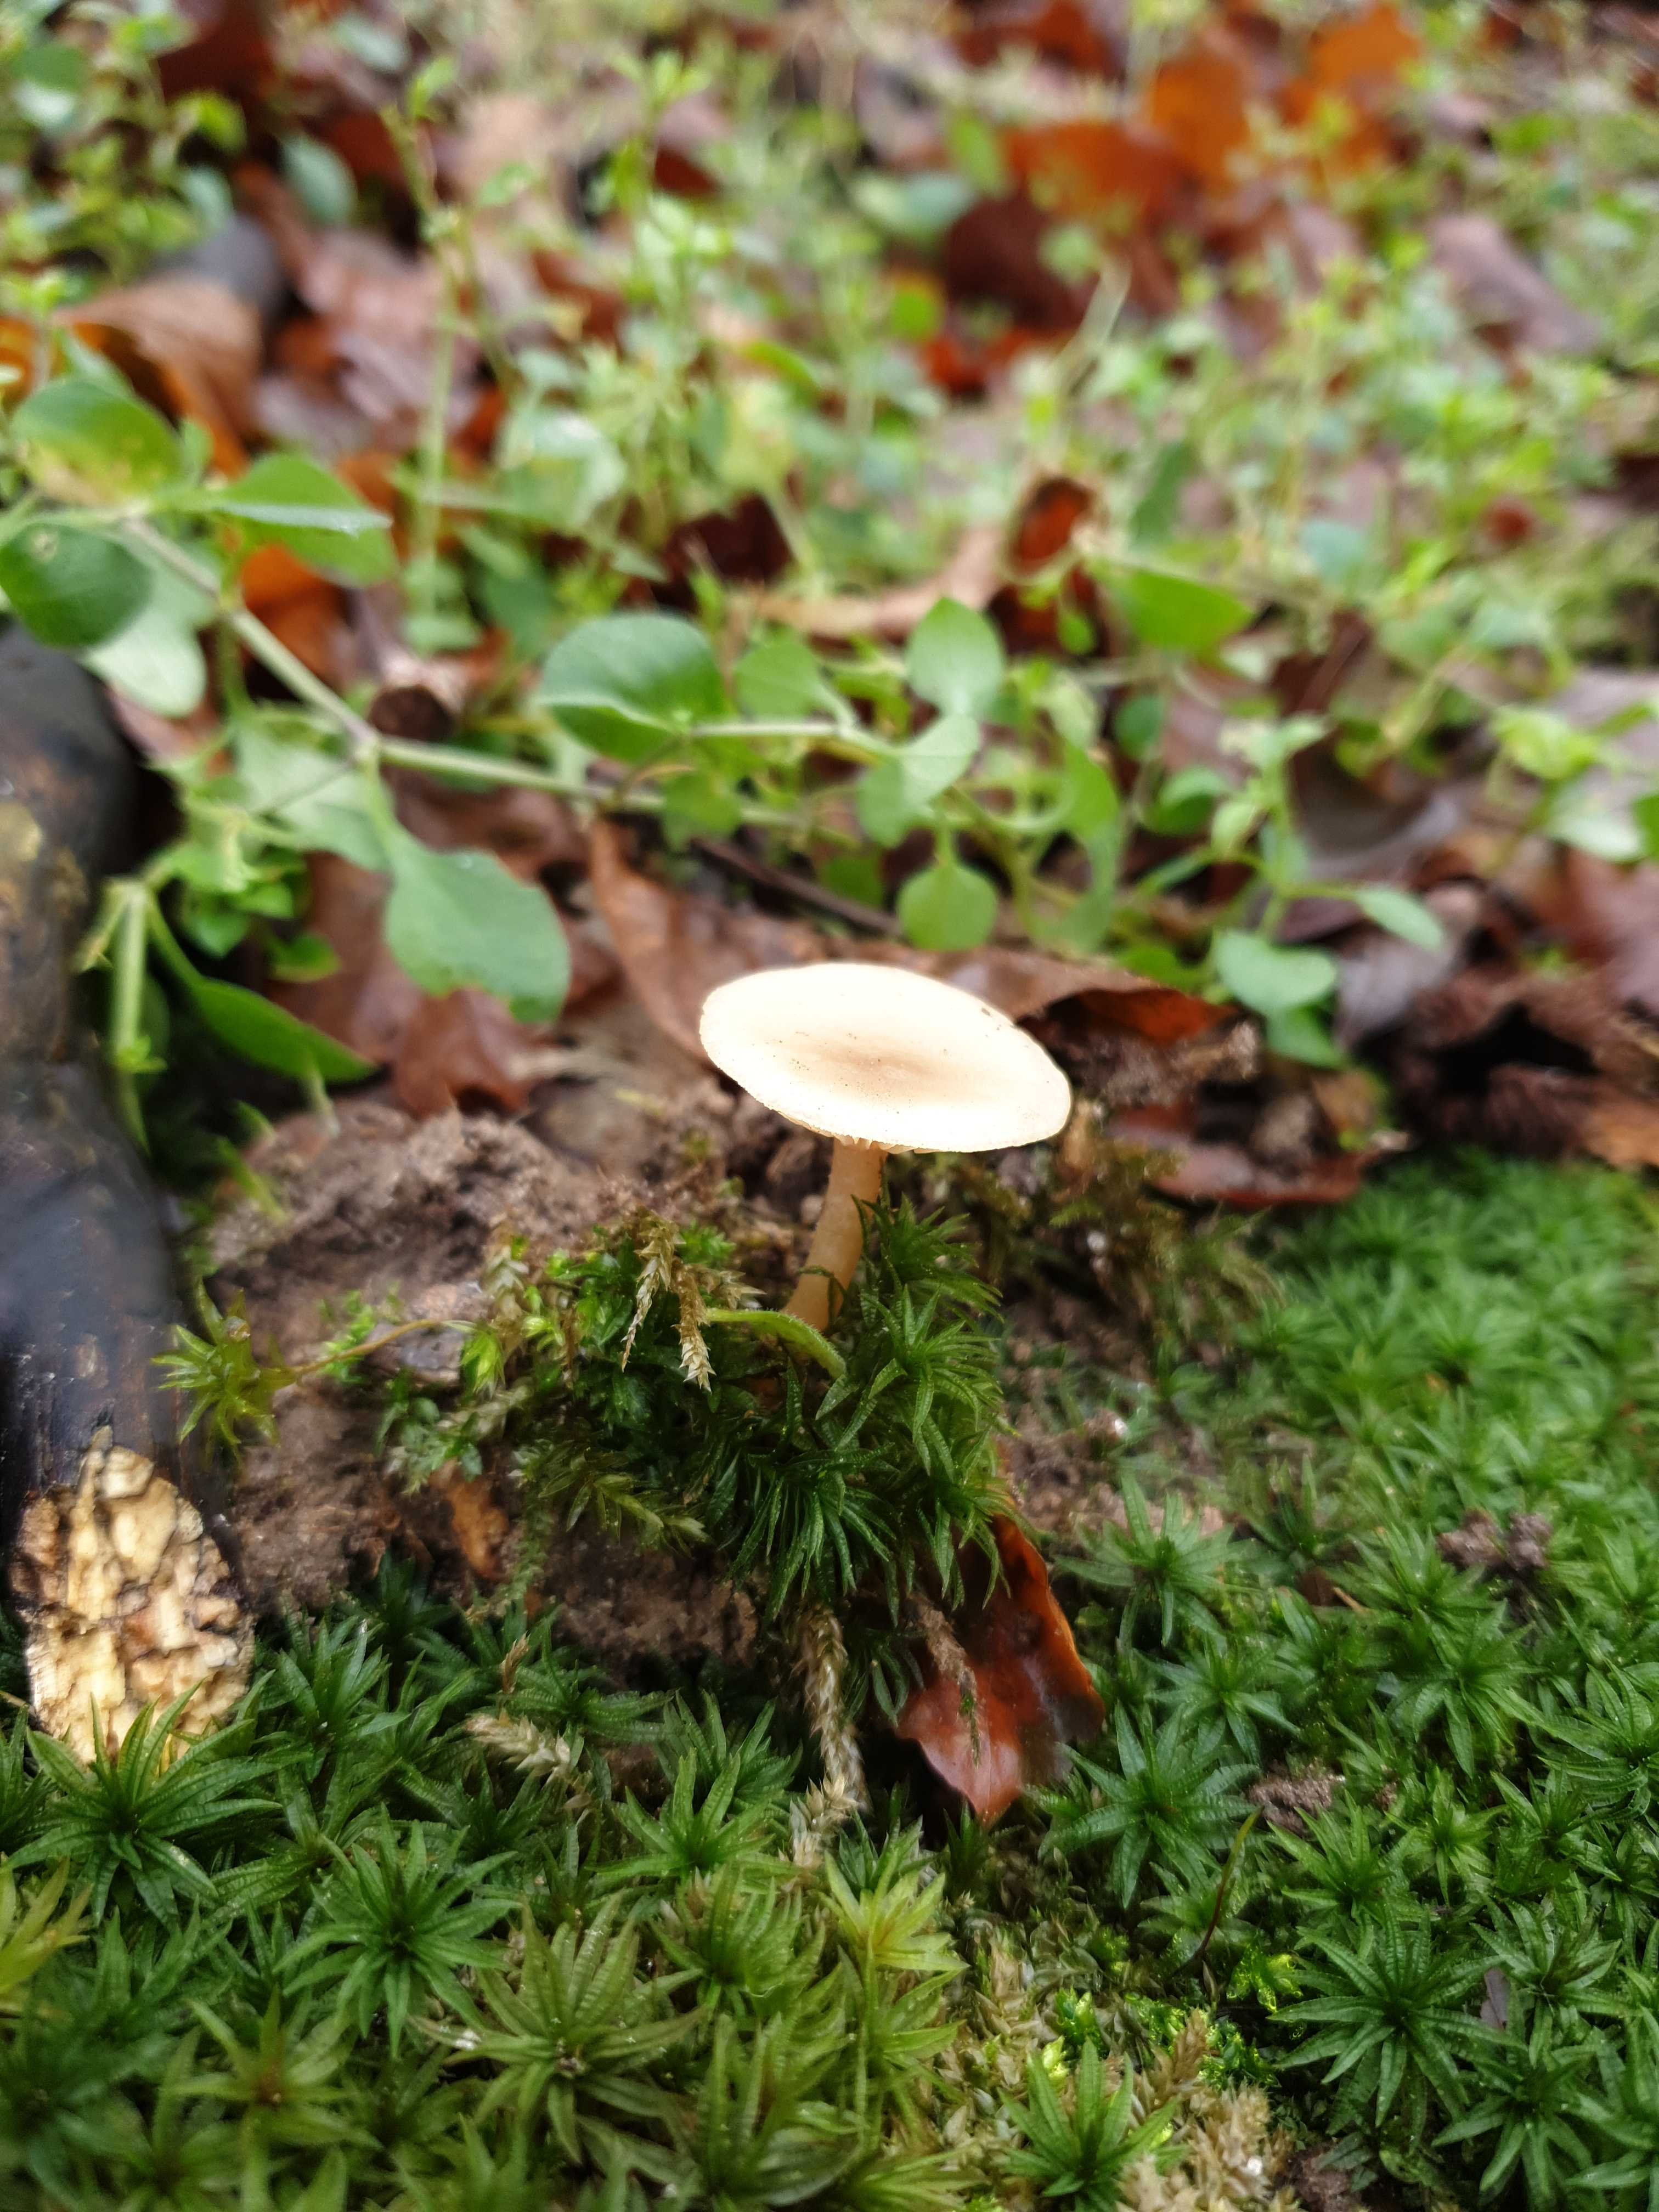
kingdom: Fungi
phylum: Basidiomycota
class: Agaricomycetes
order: Agaricales
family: Tricholomataceae
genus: Clitocybe
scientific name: Clitocybe fragrans
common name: vellugtende tragthat
